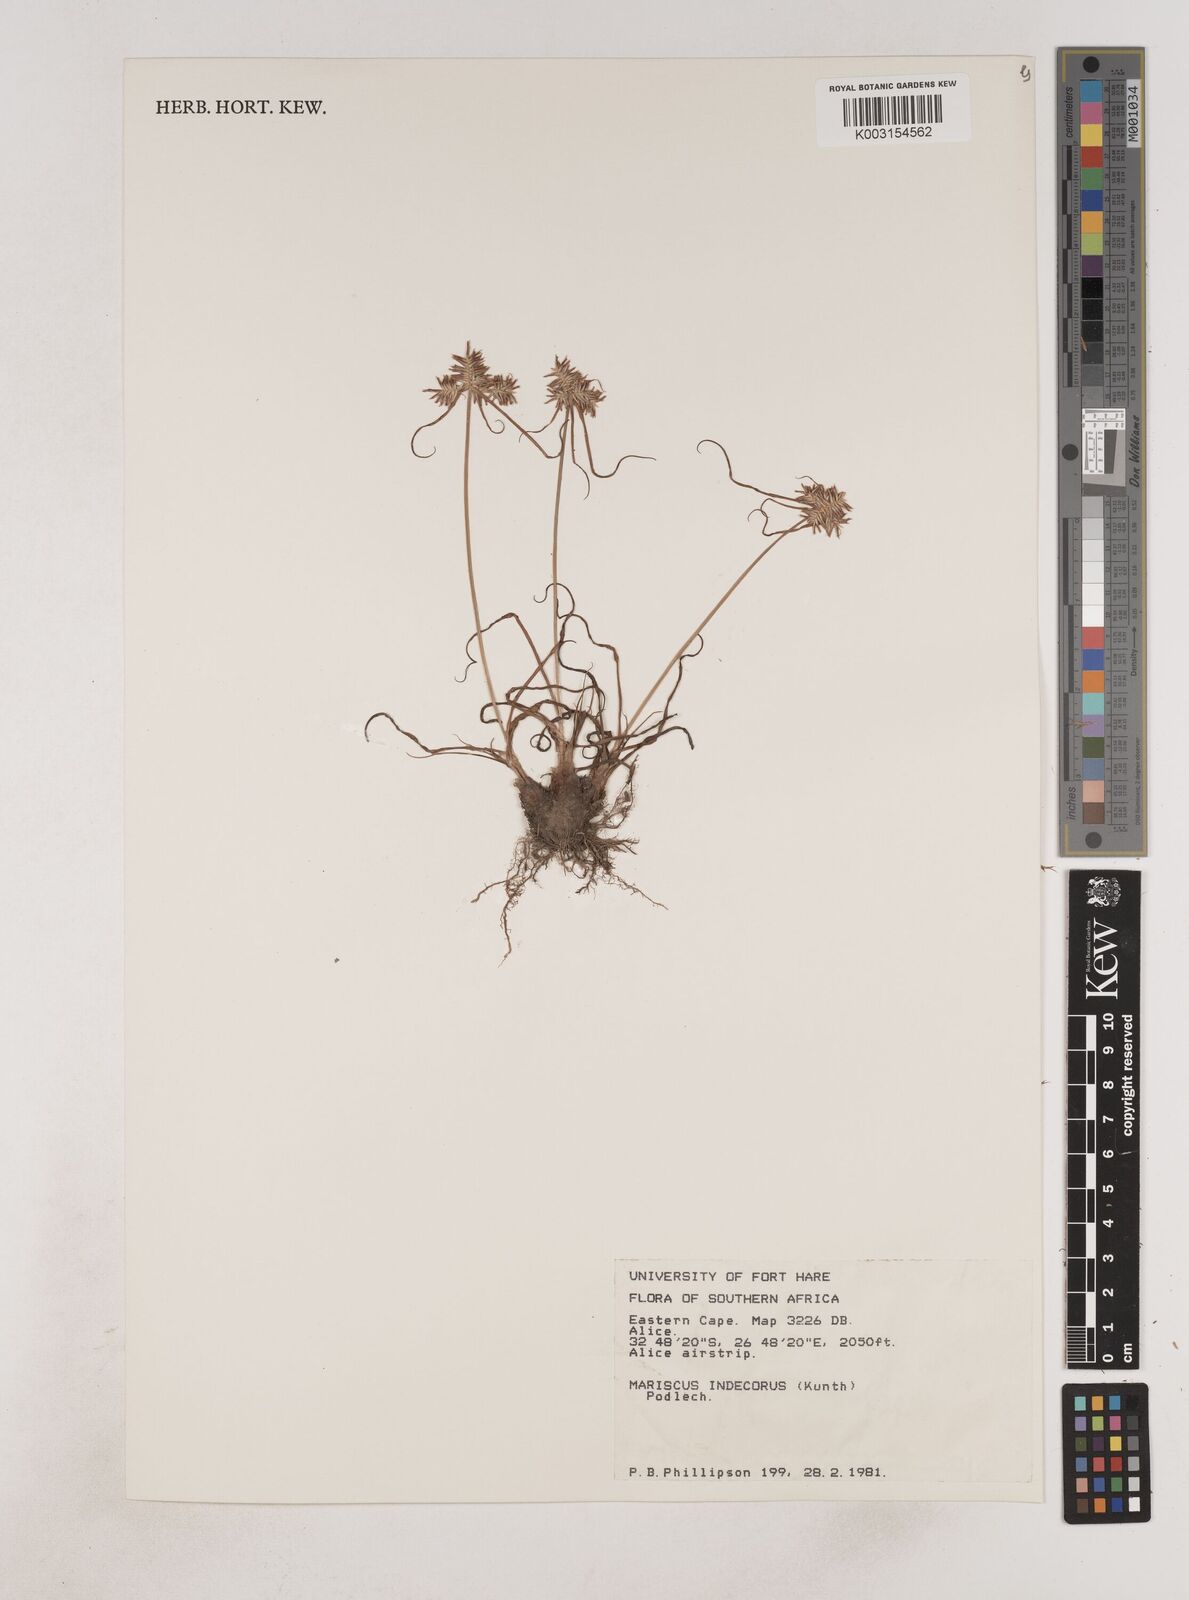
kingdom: Plantae
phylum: Tracheophyta
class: Liliopsida
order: Poales
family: Cyperaceae
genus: Cyperus
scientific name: Cyperus indecorus
